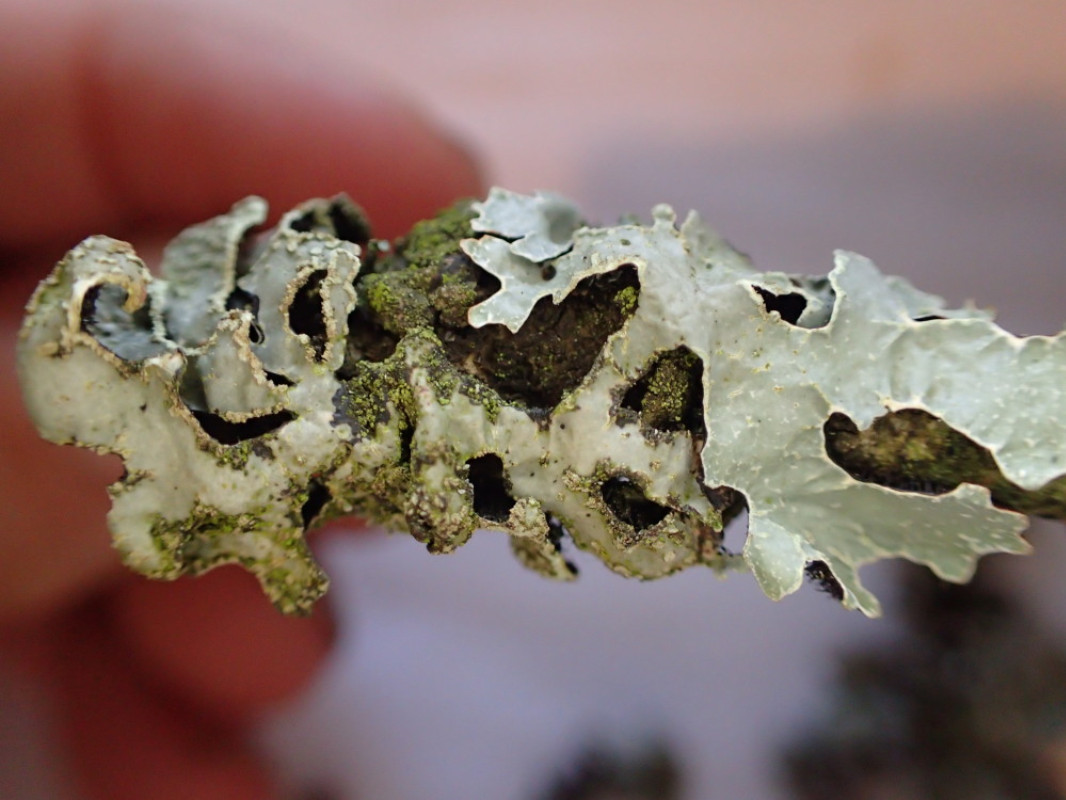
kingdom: Fungi
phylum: Ascomycota
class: Lecanoromycetes
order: Lecanorales
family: Parmeliaceae
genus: Parmelia
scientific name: Parmelia sulcata
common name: rynket skållav
